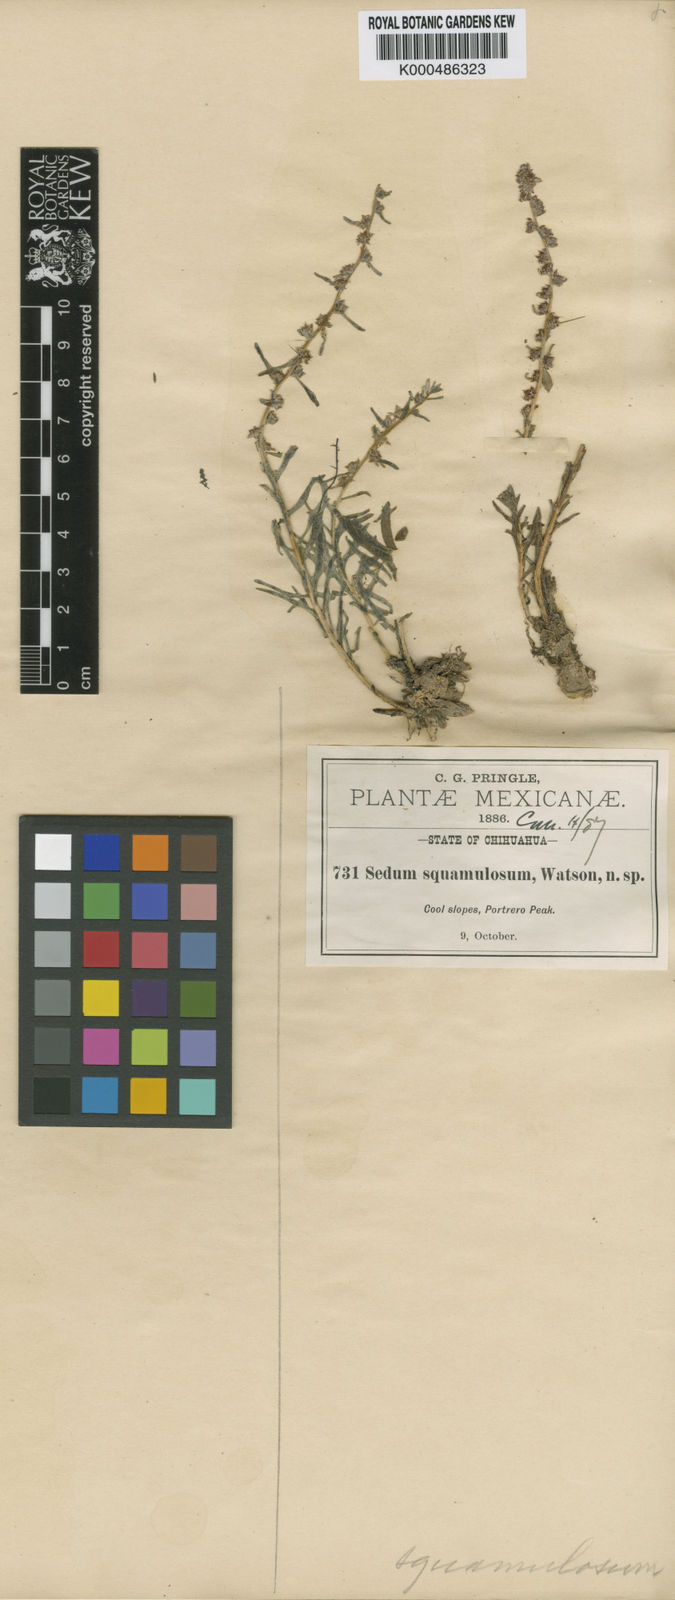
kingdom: Plantae
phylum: Tracheophyta
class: Magnoliopsida
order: Saxifragales
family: Crassulaceae
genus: Sedum
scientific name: Sedum
